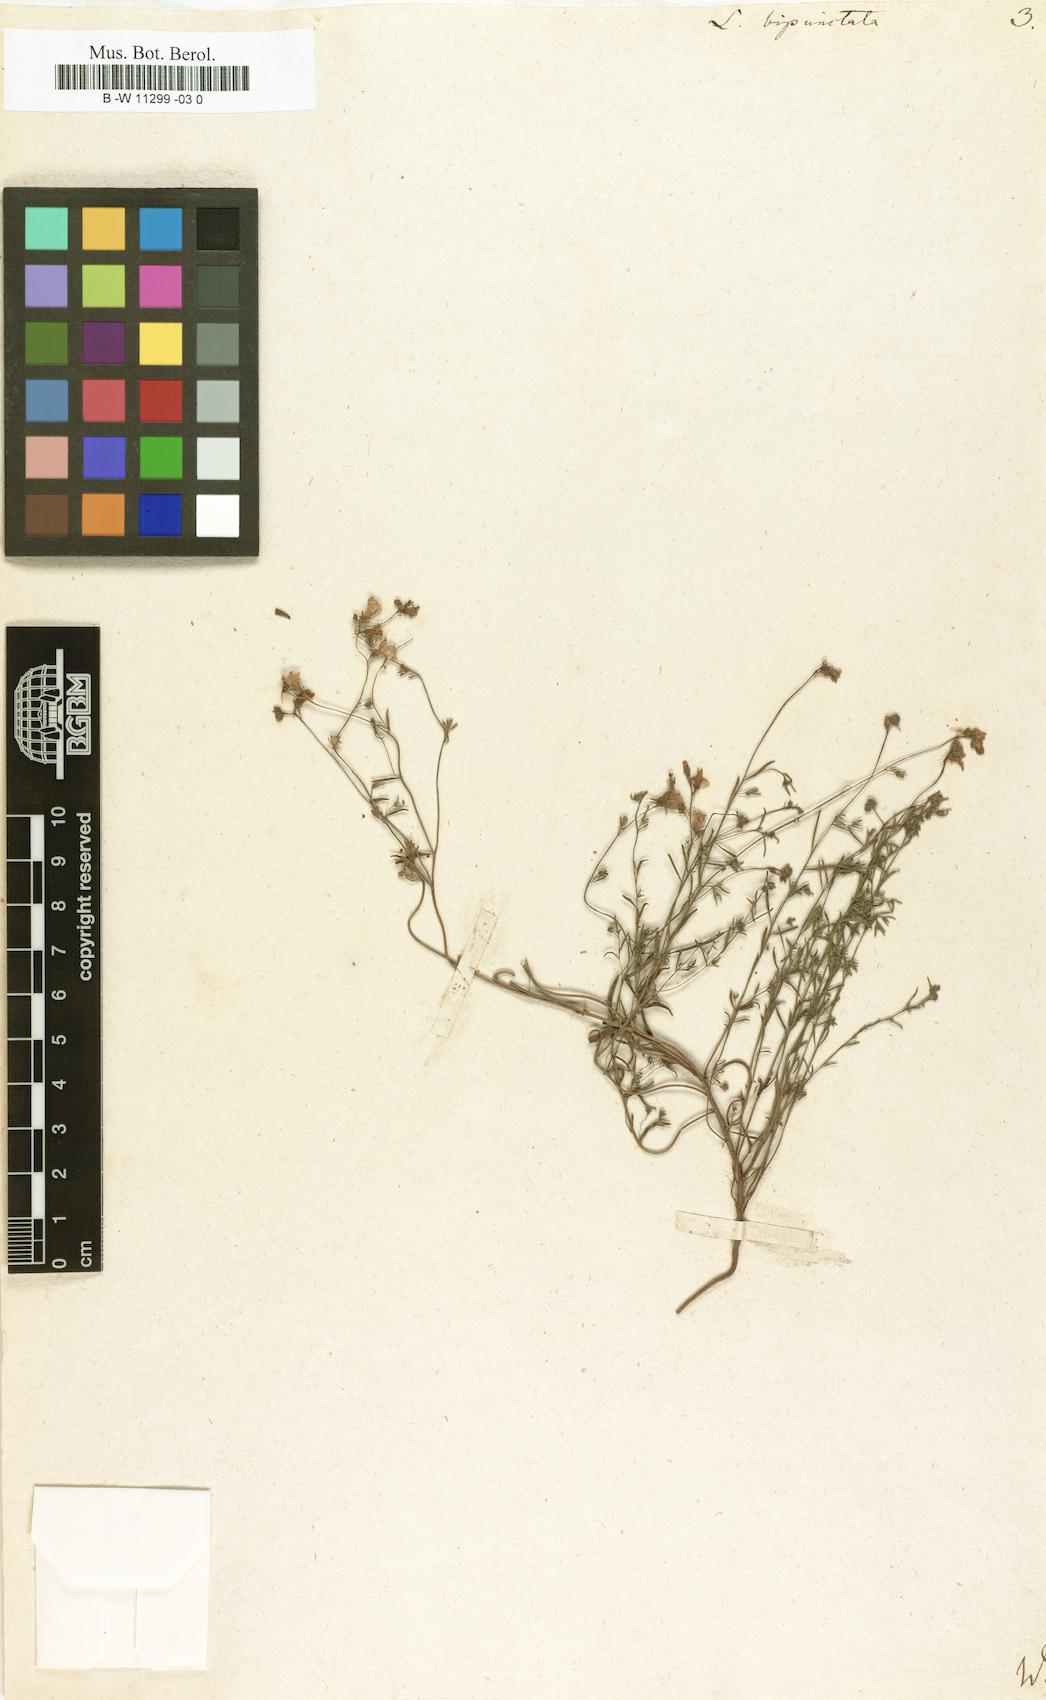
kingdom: Plantae
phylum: Tracheophyta
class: Magnoliopsida
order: Lamiales
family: Plantaginaceae
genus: Linaria
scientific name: Linaria bipunctata
